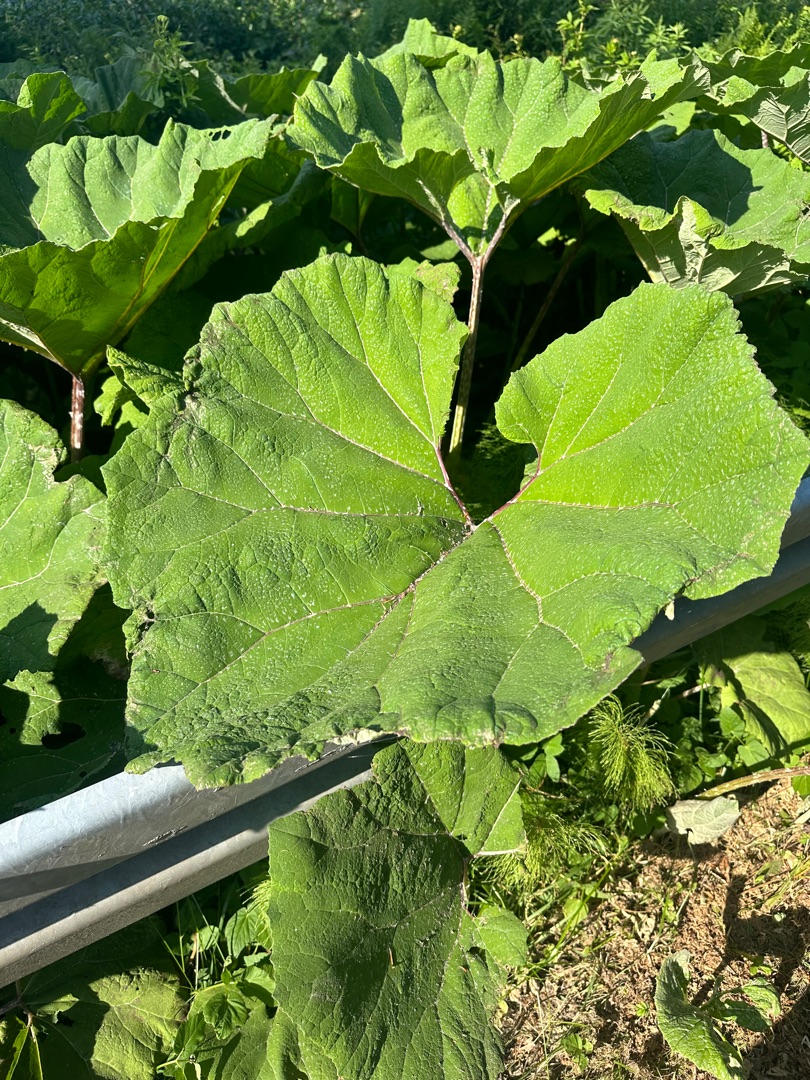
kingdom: Plantae
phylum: Tracheophyta
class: Magnoliopsida
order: Asterales
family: Asteraceae
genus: Petasites
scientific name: Petasites hybridus
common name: Rød hestehov
